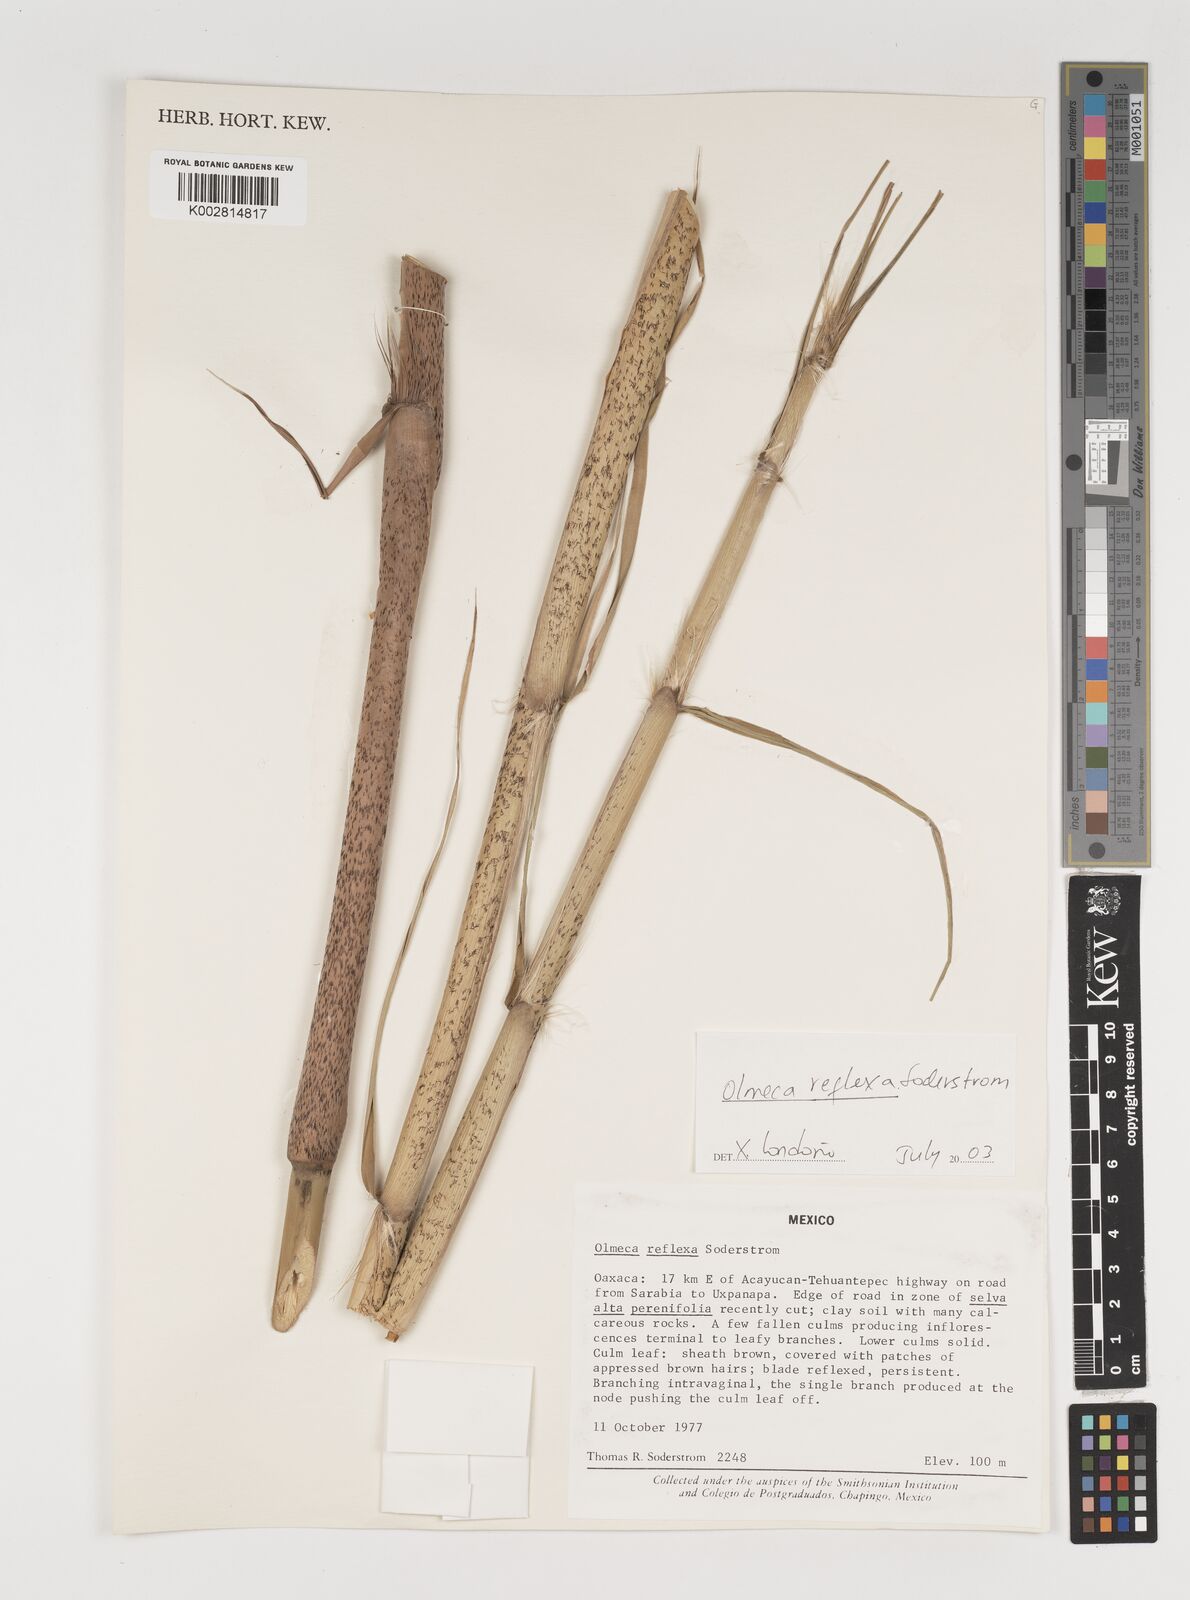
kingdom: Plantae
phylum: Tracheophyta
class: Liliopsida
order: Poales
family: Poaceae
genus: Olmeca
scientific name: Olmeca reflexa
